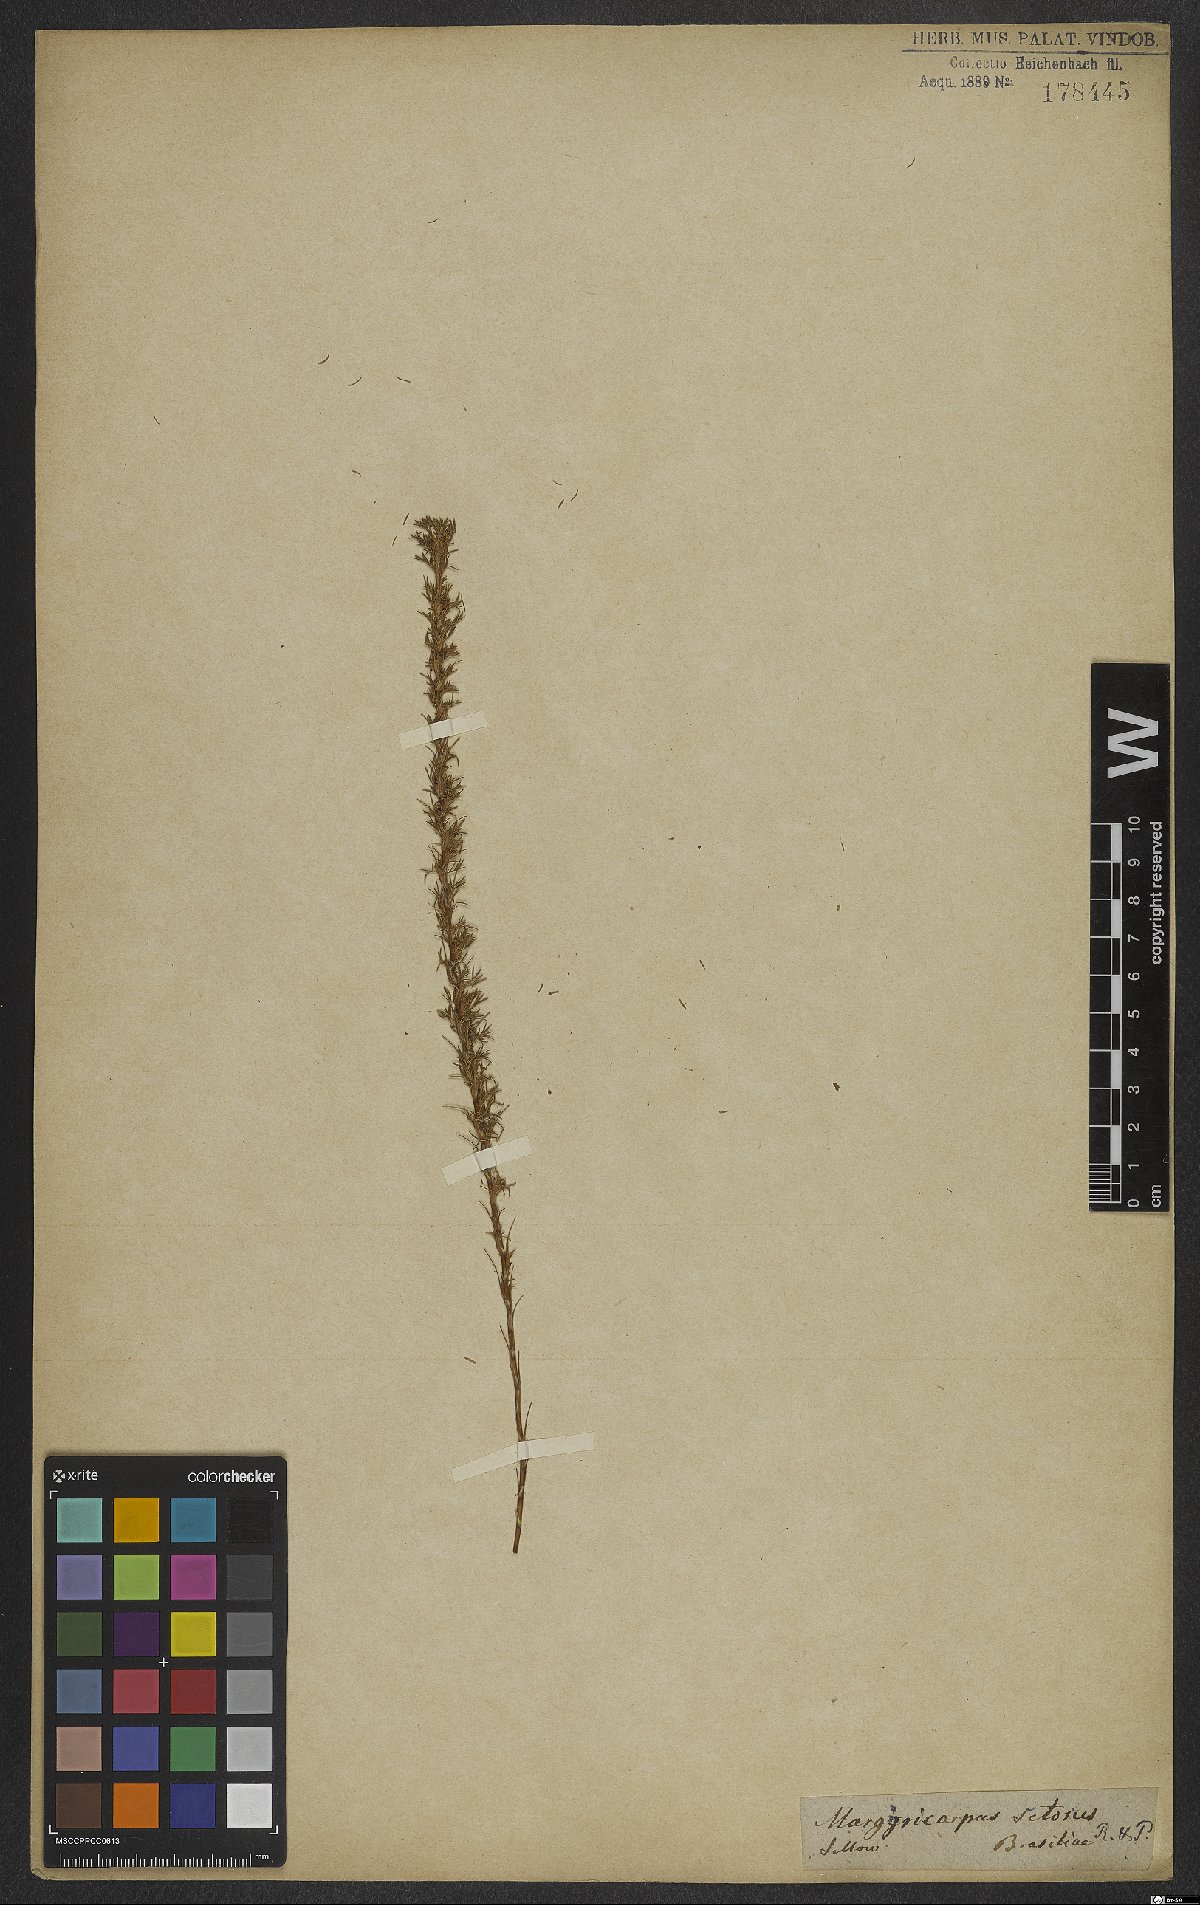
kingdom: Plantae
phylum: Tracheophyta
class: Magnoliopsida
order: Rosales
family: Rosaceae
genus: Margyricarpus
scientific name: Margyricarpus pinnatus
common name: Pearlfruit
